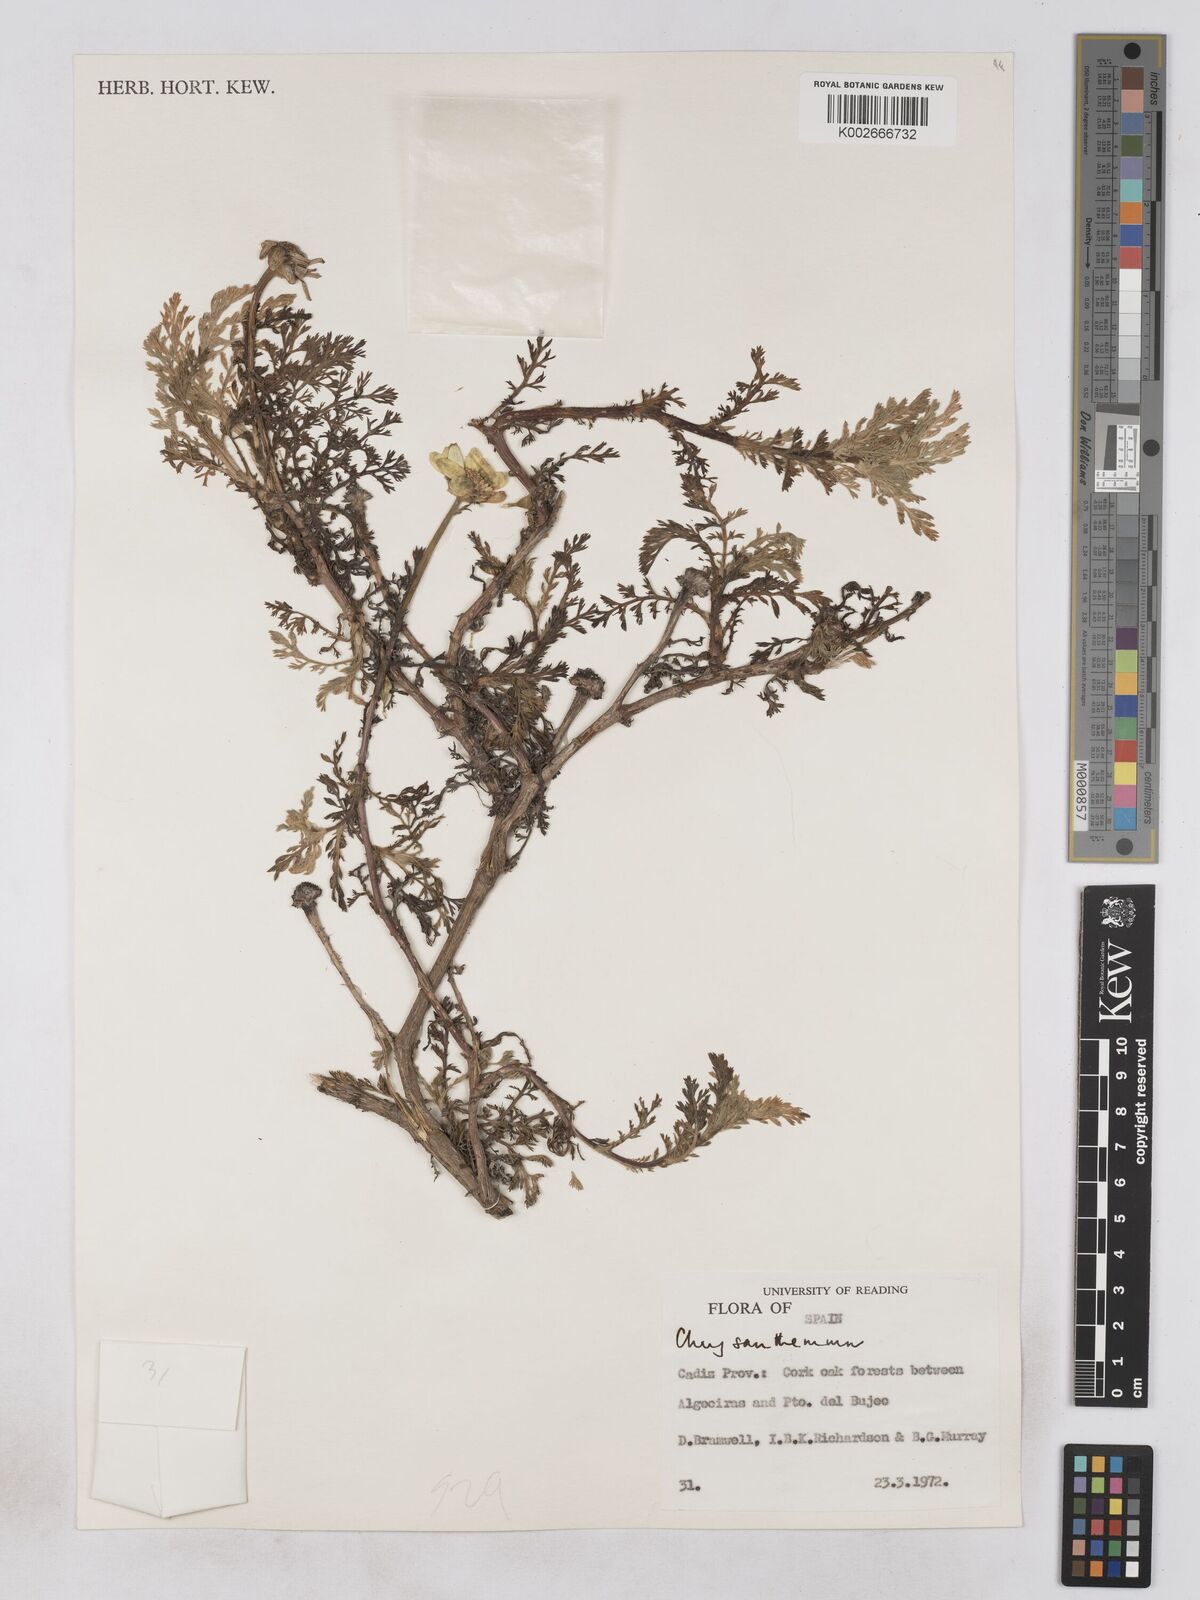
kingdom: Plantae
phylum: Tracheophyta
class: Magnoliopsida
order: Asterales
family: Asteraceae
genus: Glebionis
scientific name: Glebionis
